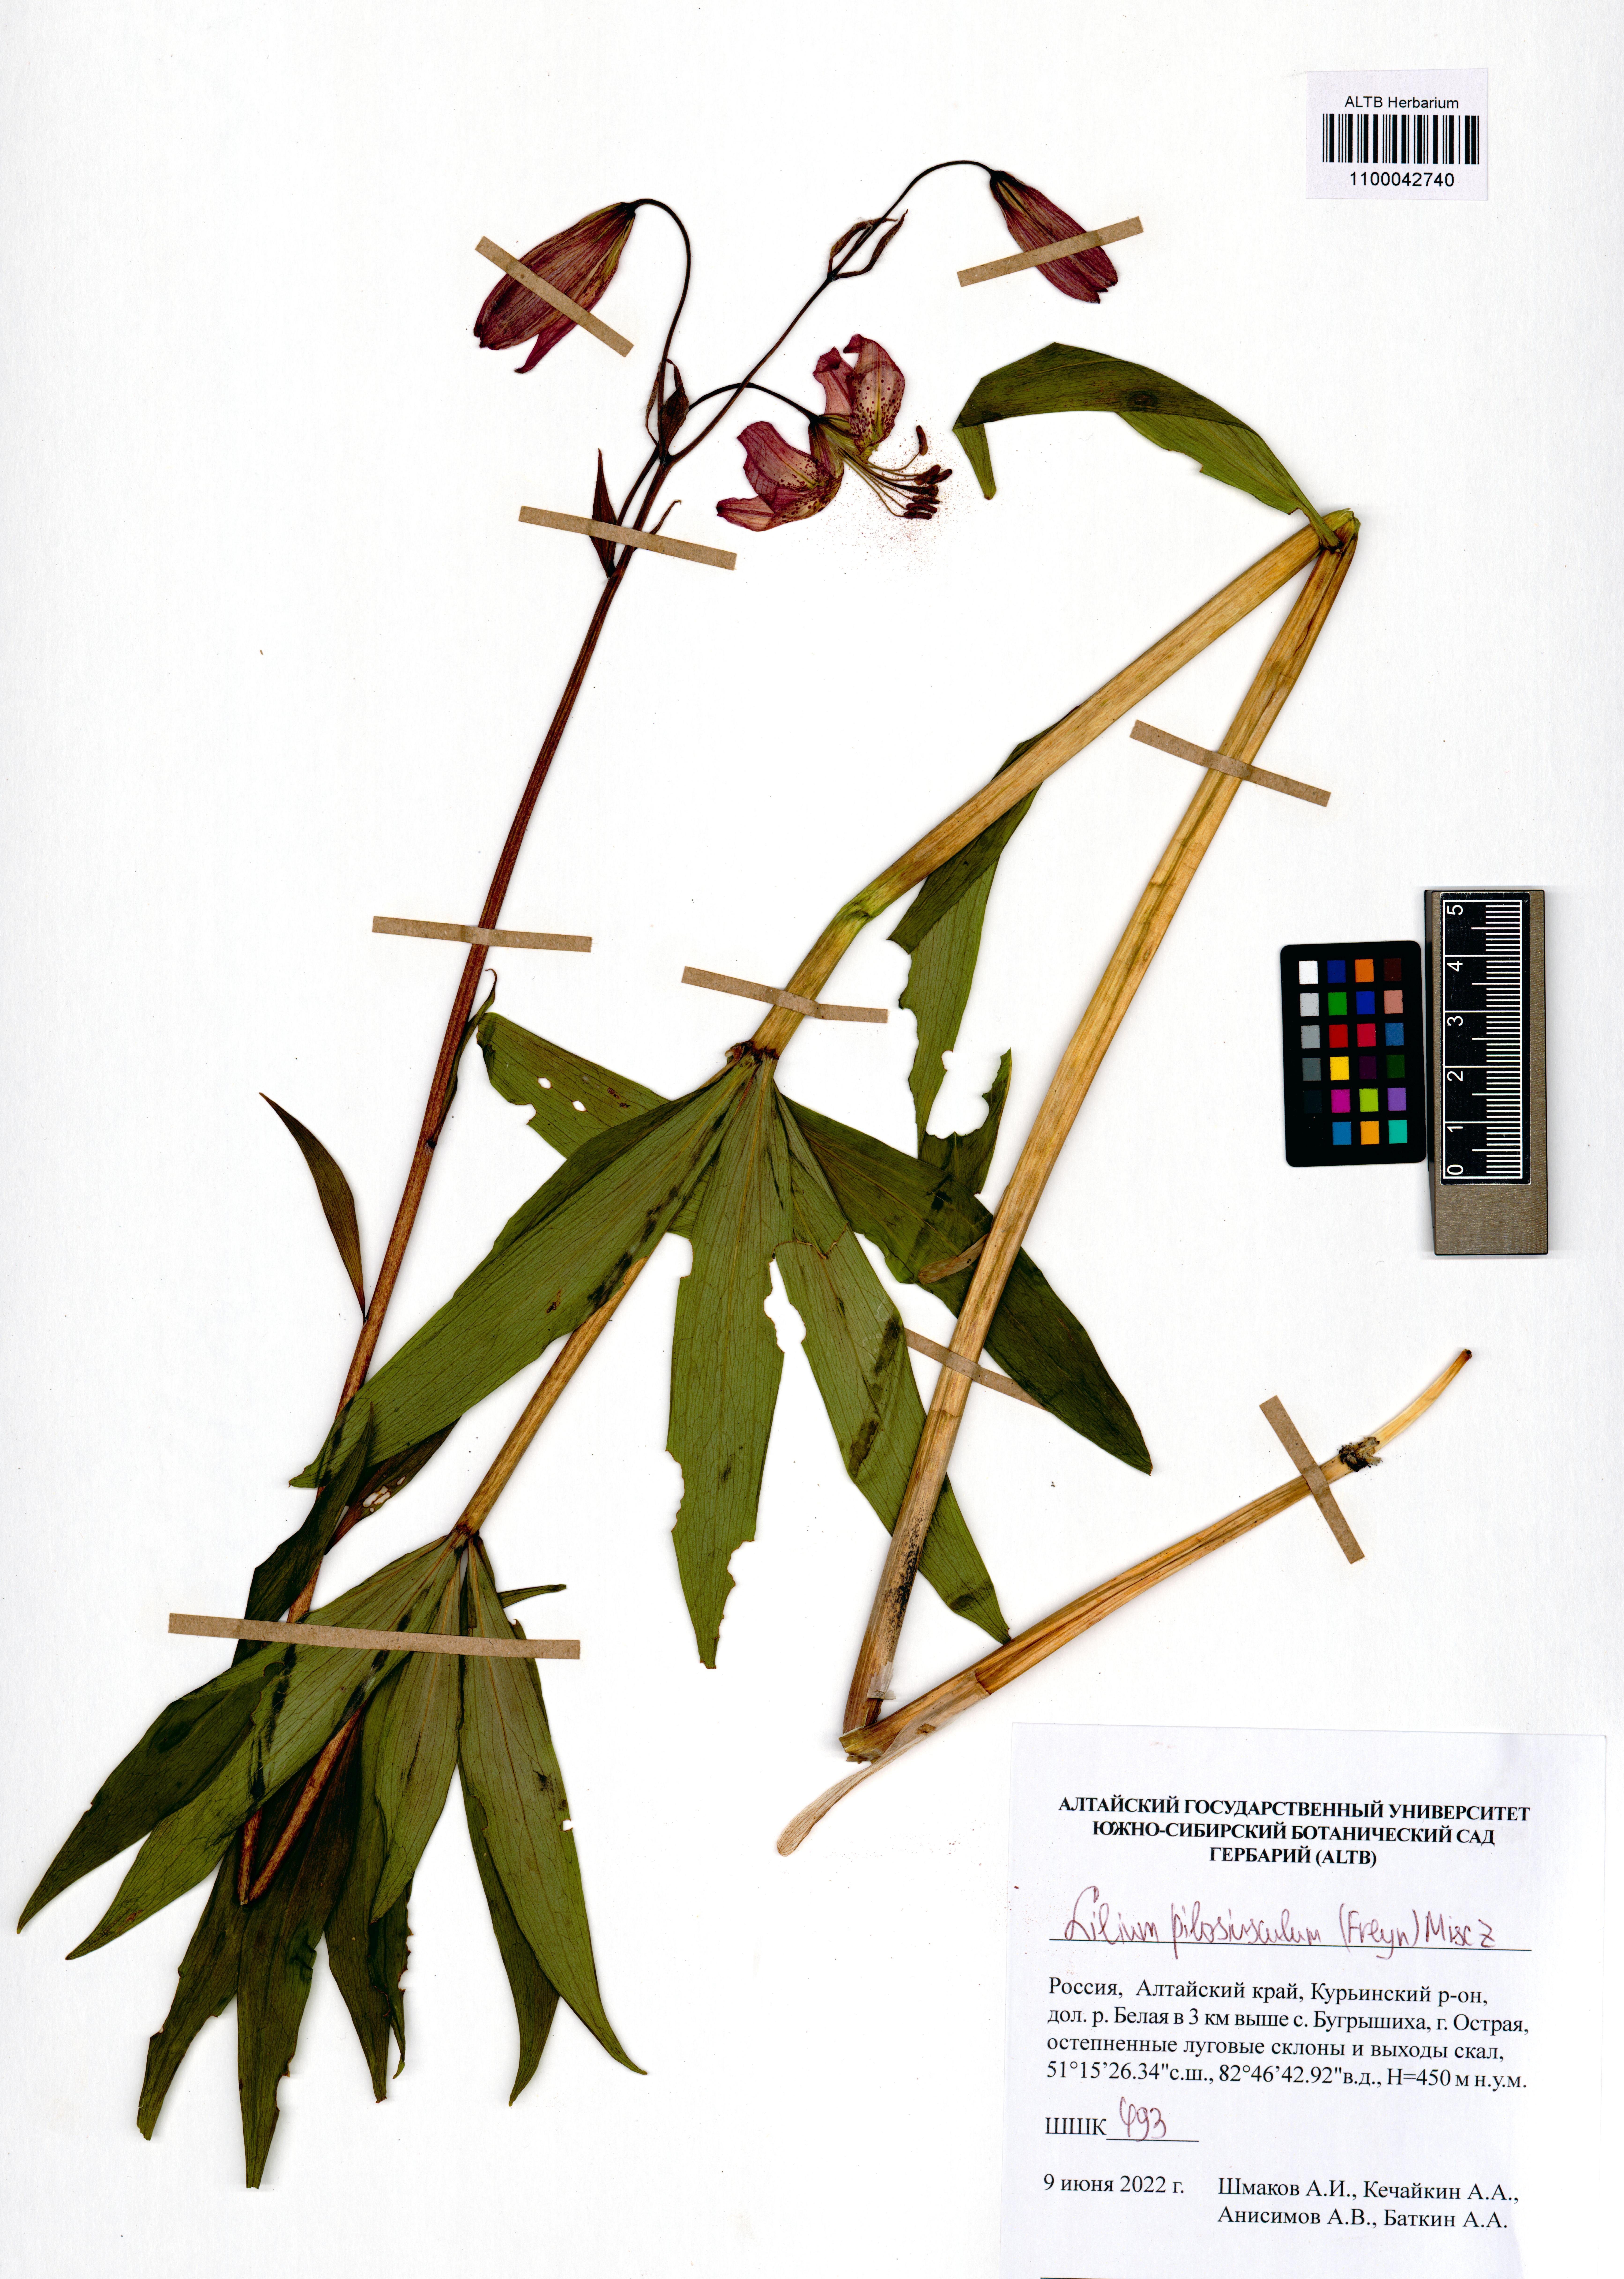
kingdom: Plantae
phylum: Tracheophyta
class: Liliopsida
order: Liliales
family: Liliaceae
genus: Lilium
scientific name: Lilium martagon
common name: Martagon lily
